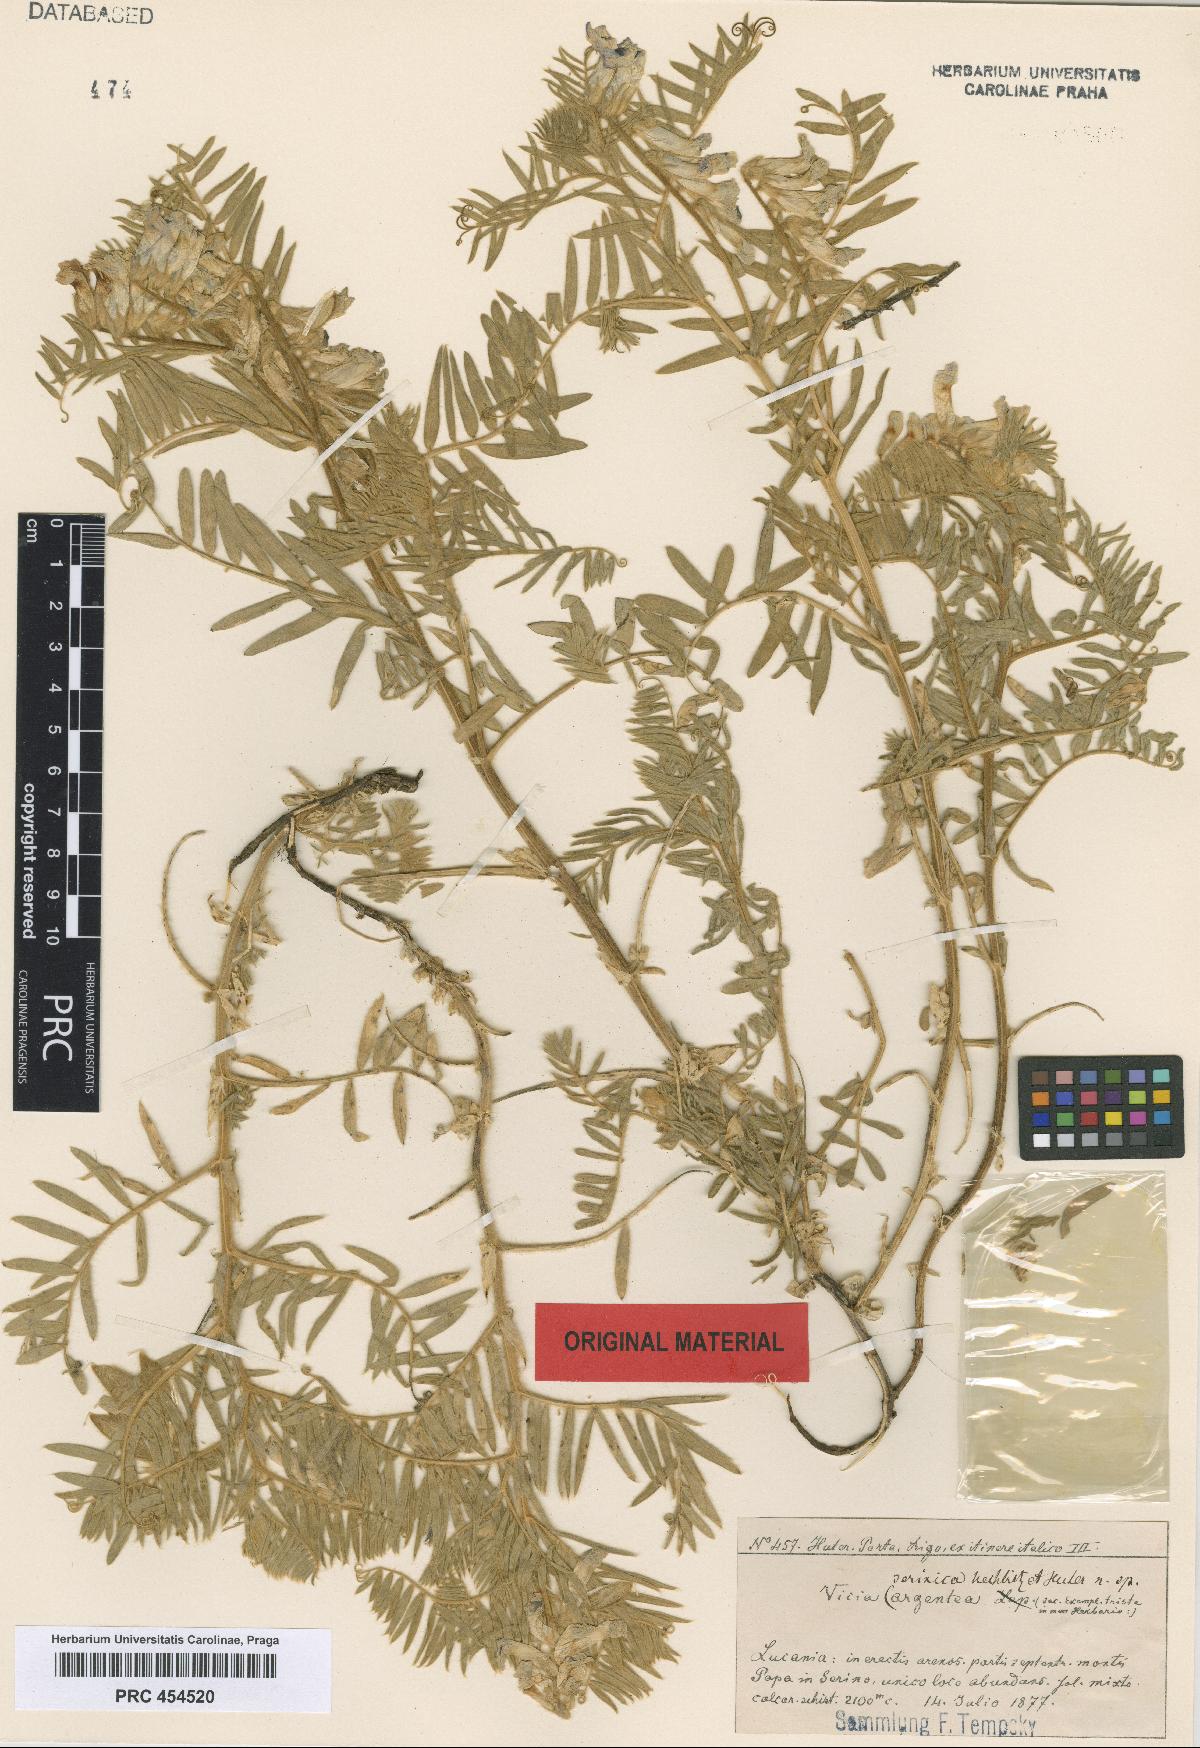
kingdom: Plantae
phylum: Tracheophyta
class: Magnoliopsida
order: Fabales
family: Fabaceae
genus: Vicia
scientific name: Vicia canescens
